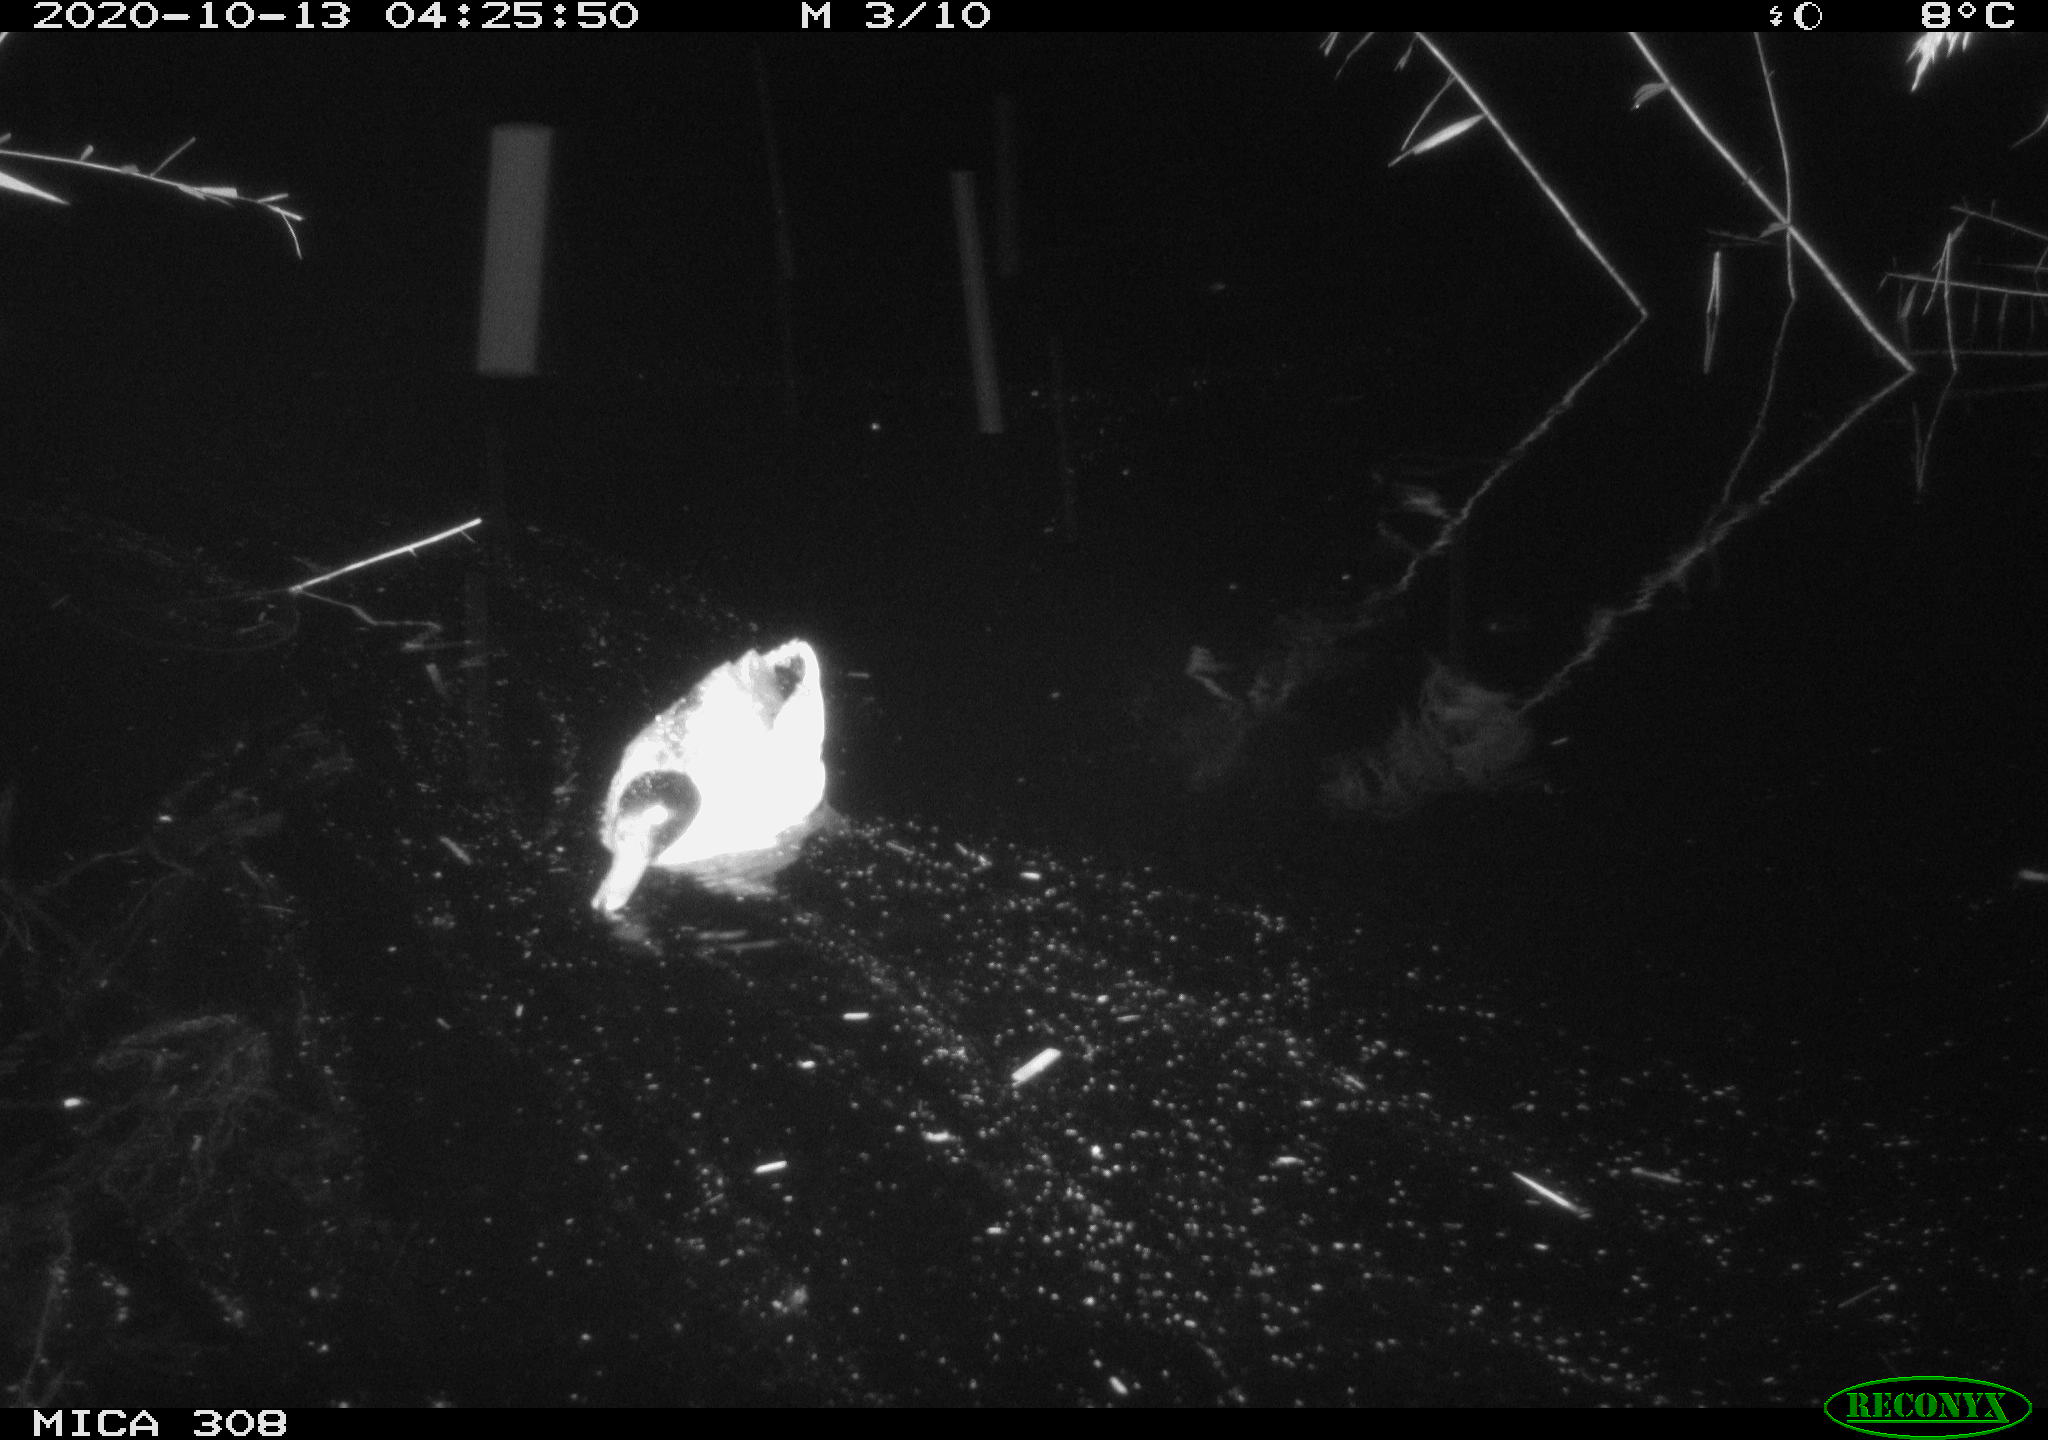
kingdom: Animalia
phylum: Chordata
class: Aves
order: Gruiformes
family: Rallidae
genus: Gallinula
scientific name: Gallinula chloropus
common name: Common moorhen
